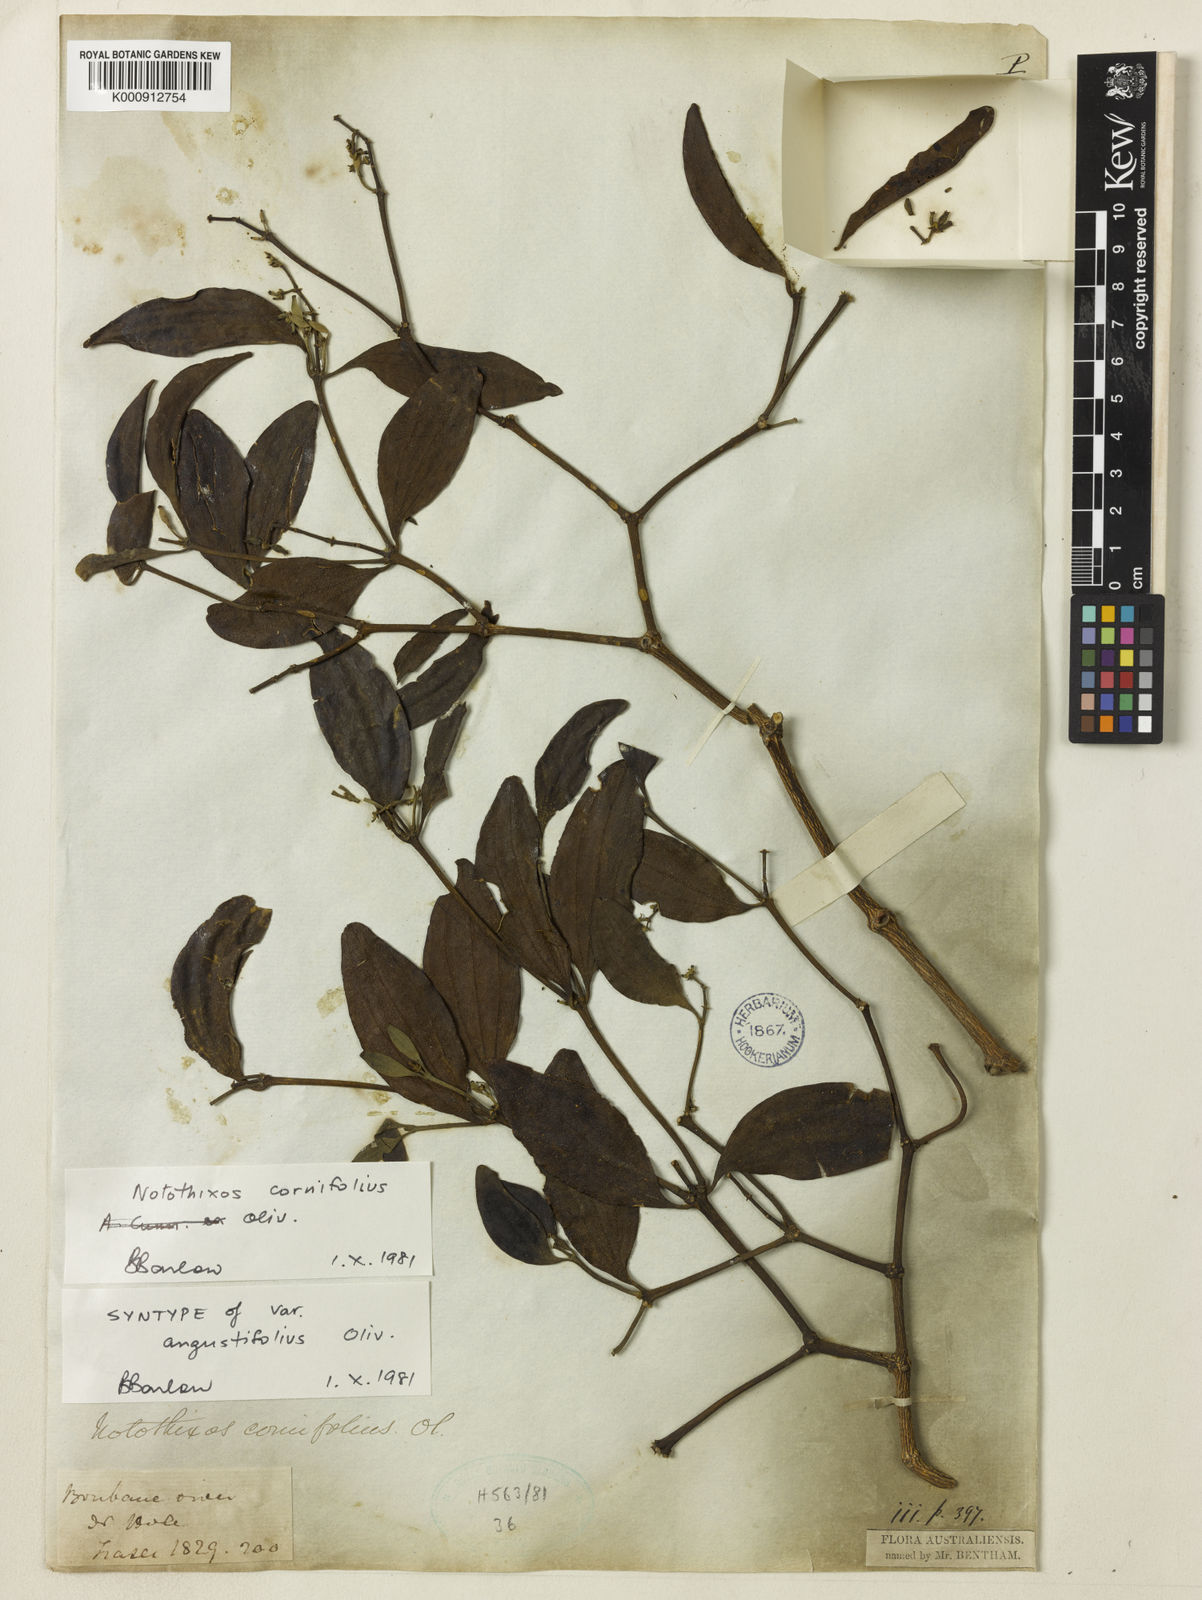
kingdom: Plantae
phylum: Tracheophyta
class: Magnoliopsida
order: Santalales
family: Viscaceae
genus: Notothixos
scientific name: Notothixos cornifolius
